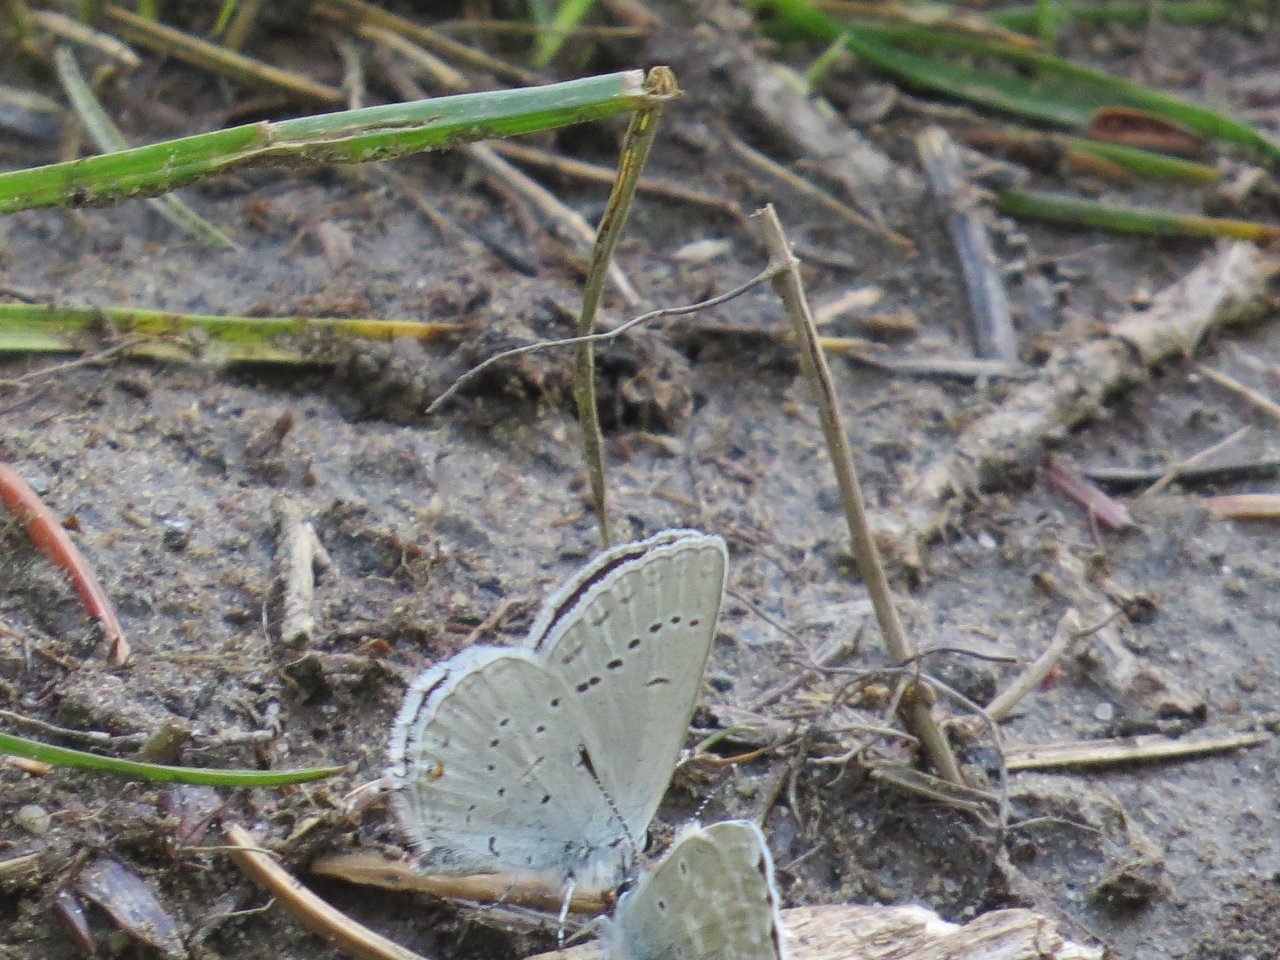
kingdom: Animalia
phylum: Arthropoda
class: Insecta
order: Lepidoptera
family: Lycaenidae
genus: Elkalyce
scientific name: Elkalyce amyntula
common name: Western Tailed-Blue
